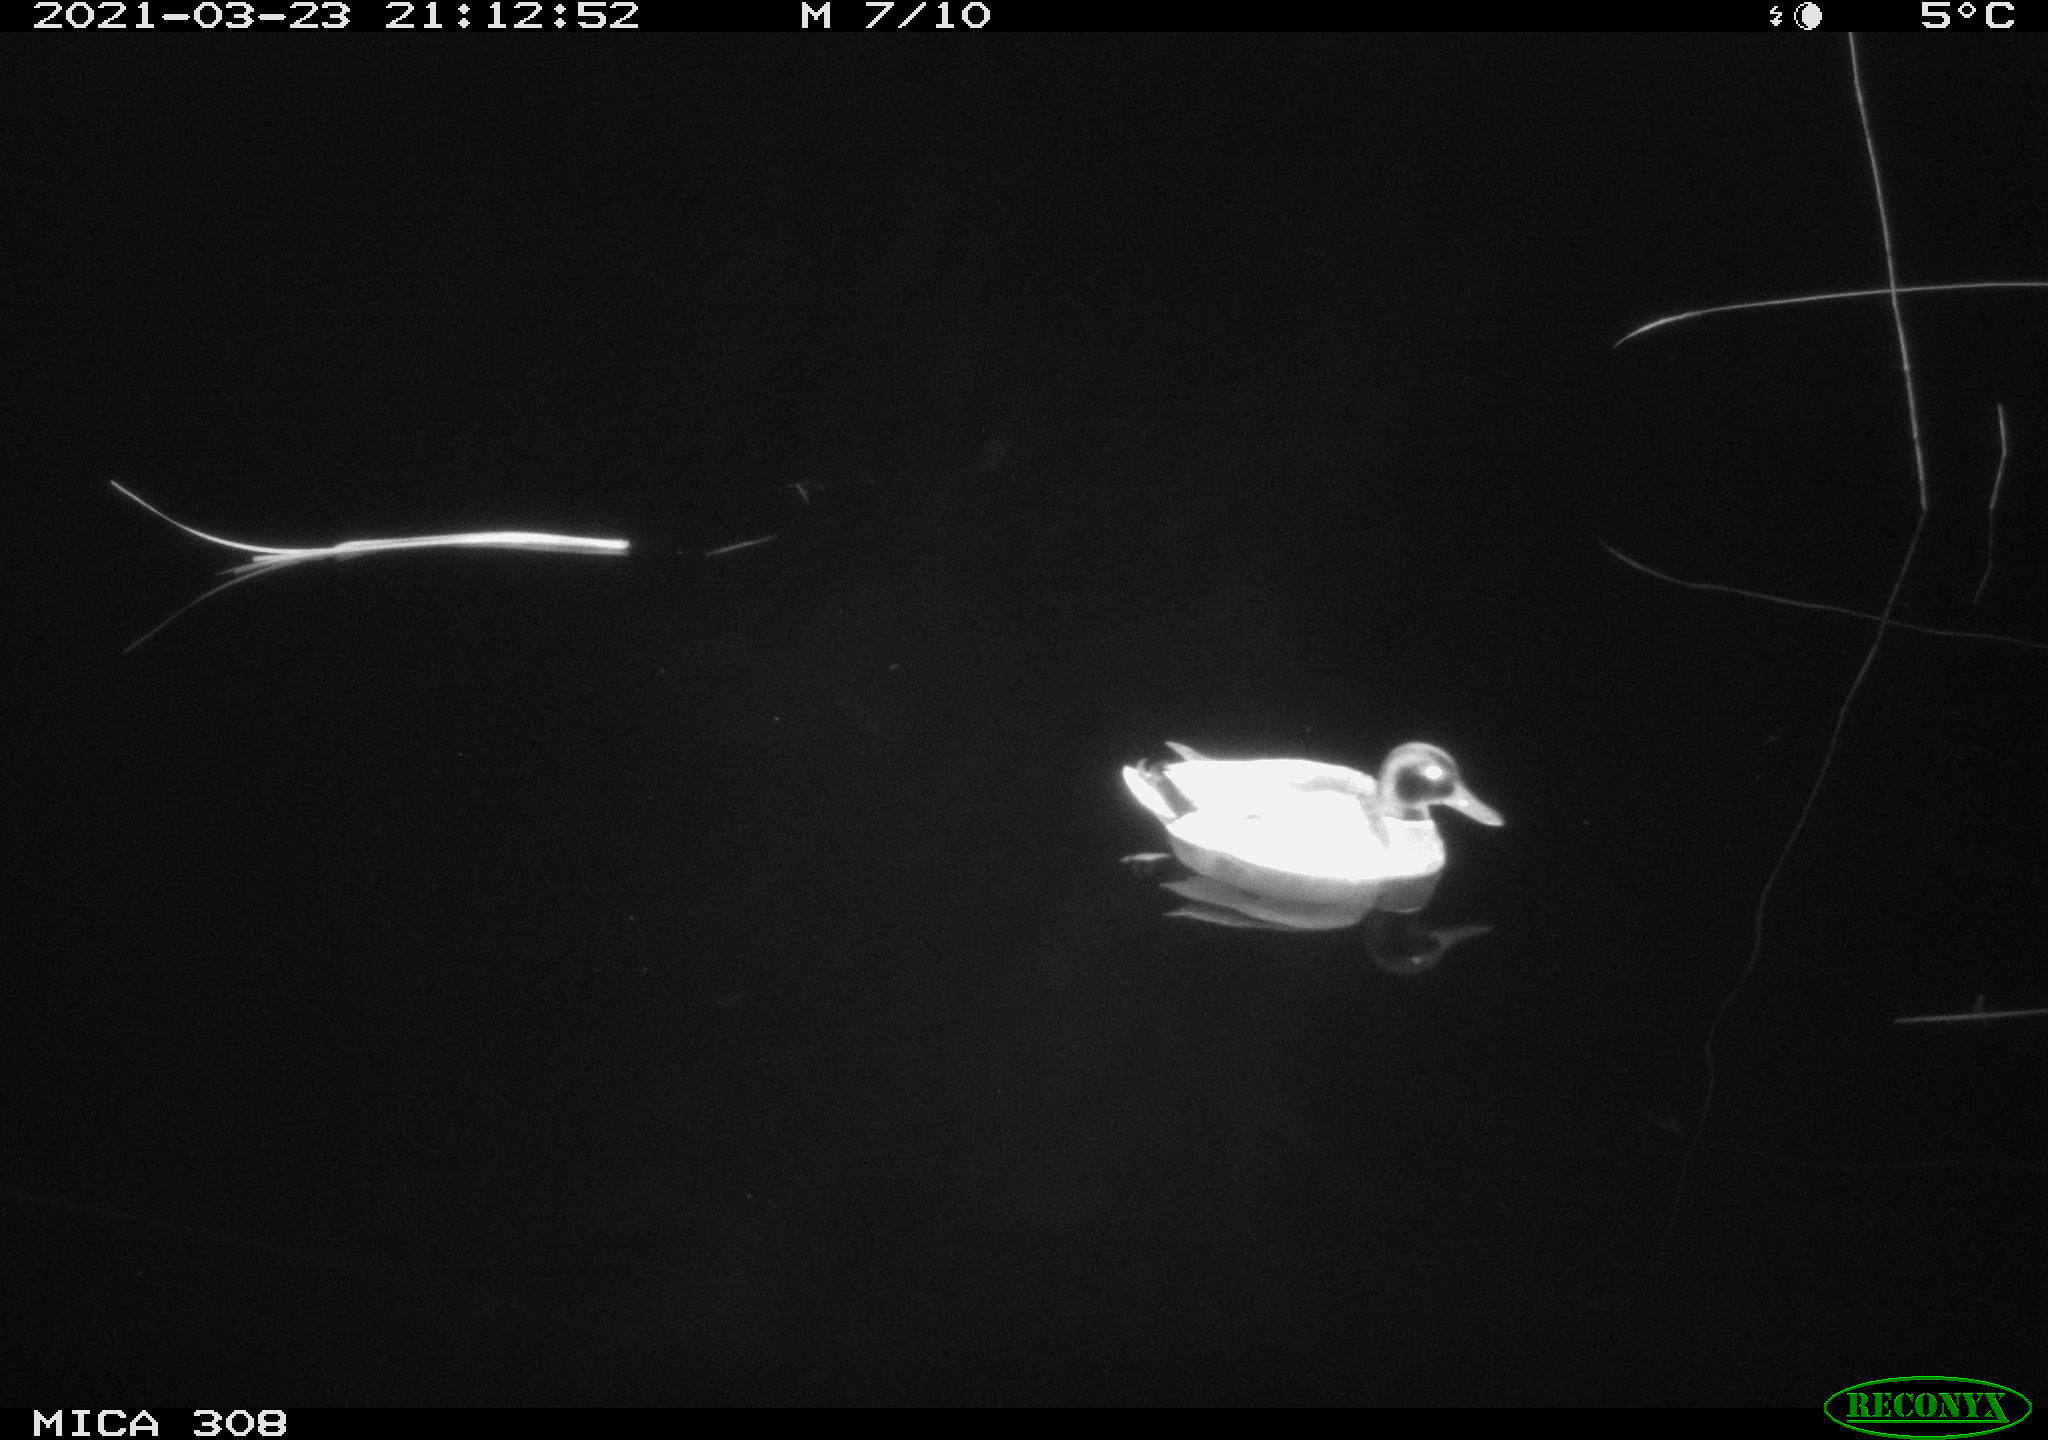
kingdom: Animalia
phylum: Chordata
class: Aves
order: Anseriformes
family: Anatidae
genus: Anas
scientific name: Anas platyrhynchos
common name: Mallard
